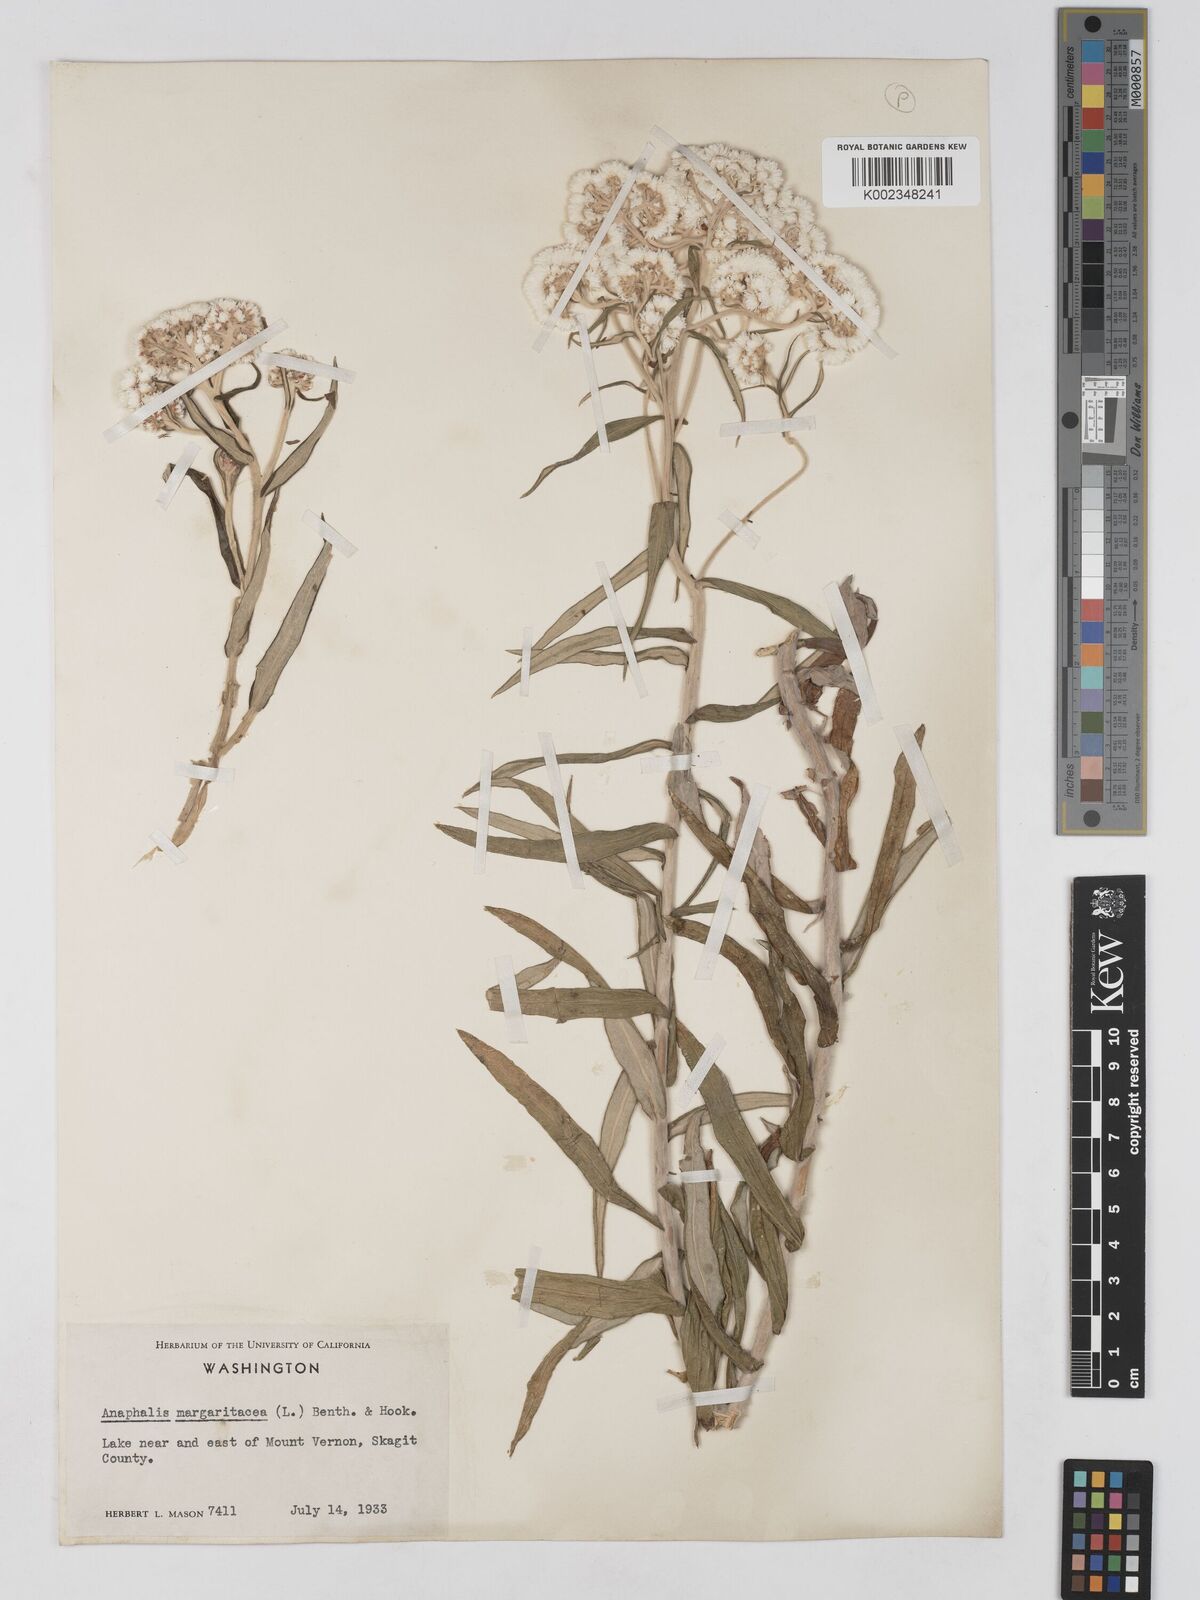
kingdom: Plantae
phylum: Tracheophyta
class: Magnoliopsida
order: Asterales
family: Asteraceae
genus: Anaphalis
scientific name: Anaphalis margaritacea
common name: Pearly everlasting
